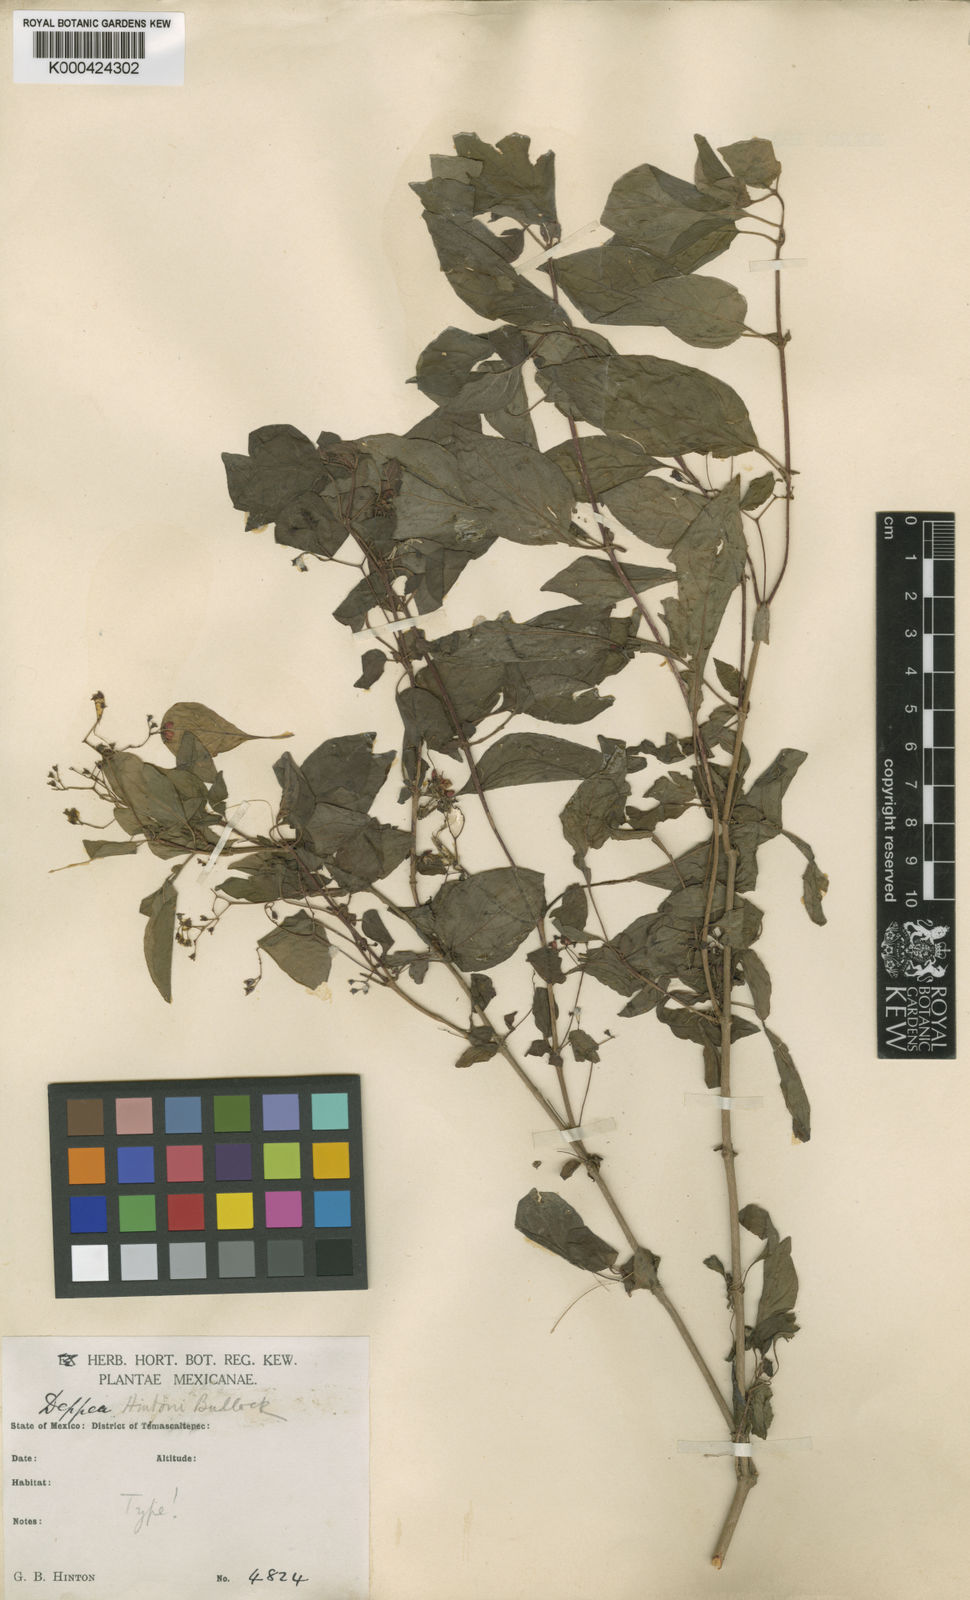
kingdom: Plantae
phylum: Tracheophyta
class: Magnoliopsida
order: Gentianales
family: Rubiaceae
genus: Deppea
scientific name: Deppea hintonii
